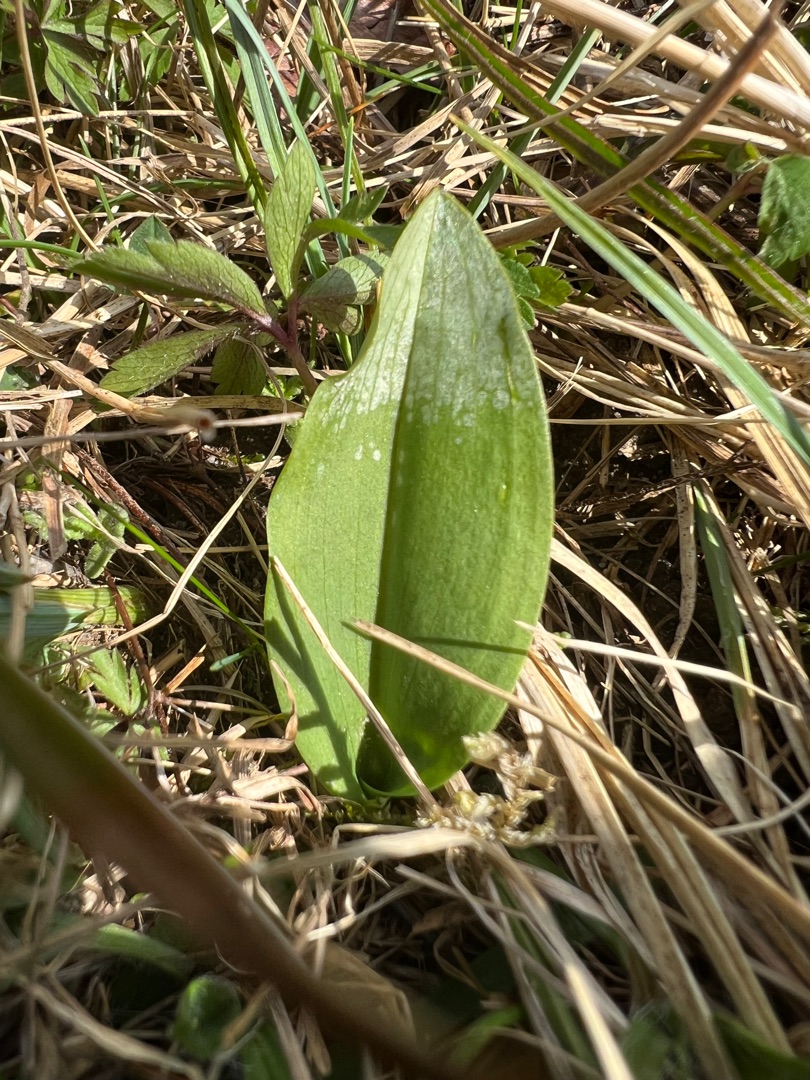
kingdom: Plantae
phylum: Tracheophyta
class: Liliopsida
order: Asparagales
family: Orchidaceae
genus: Platanthera
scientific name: Platanthera
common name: Gøgeliljeslægten
